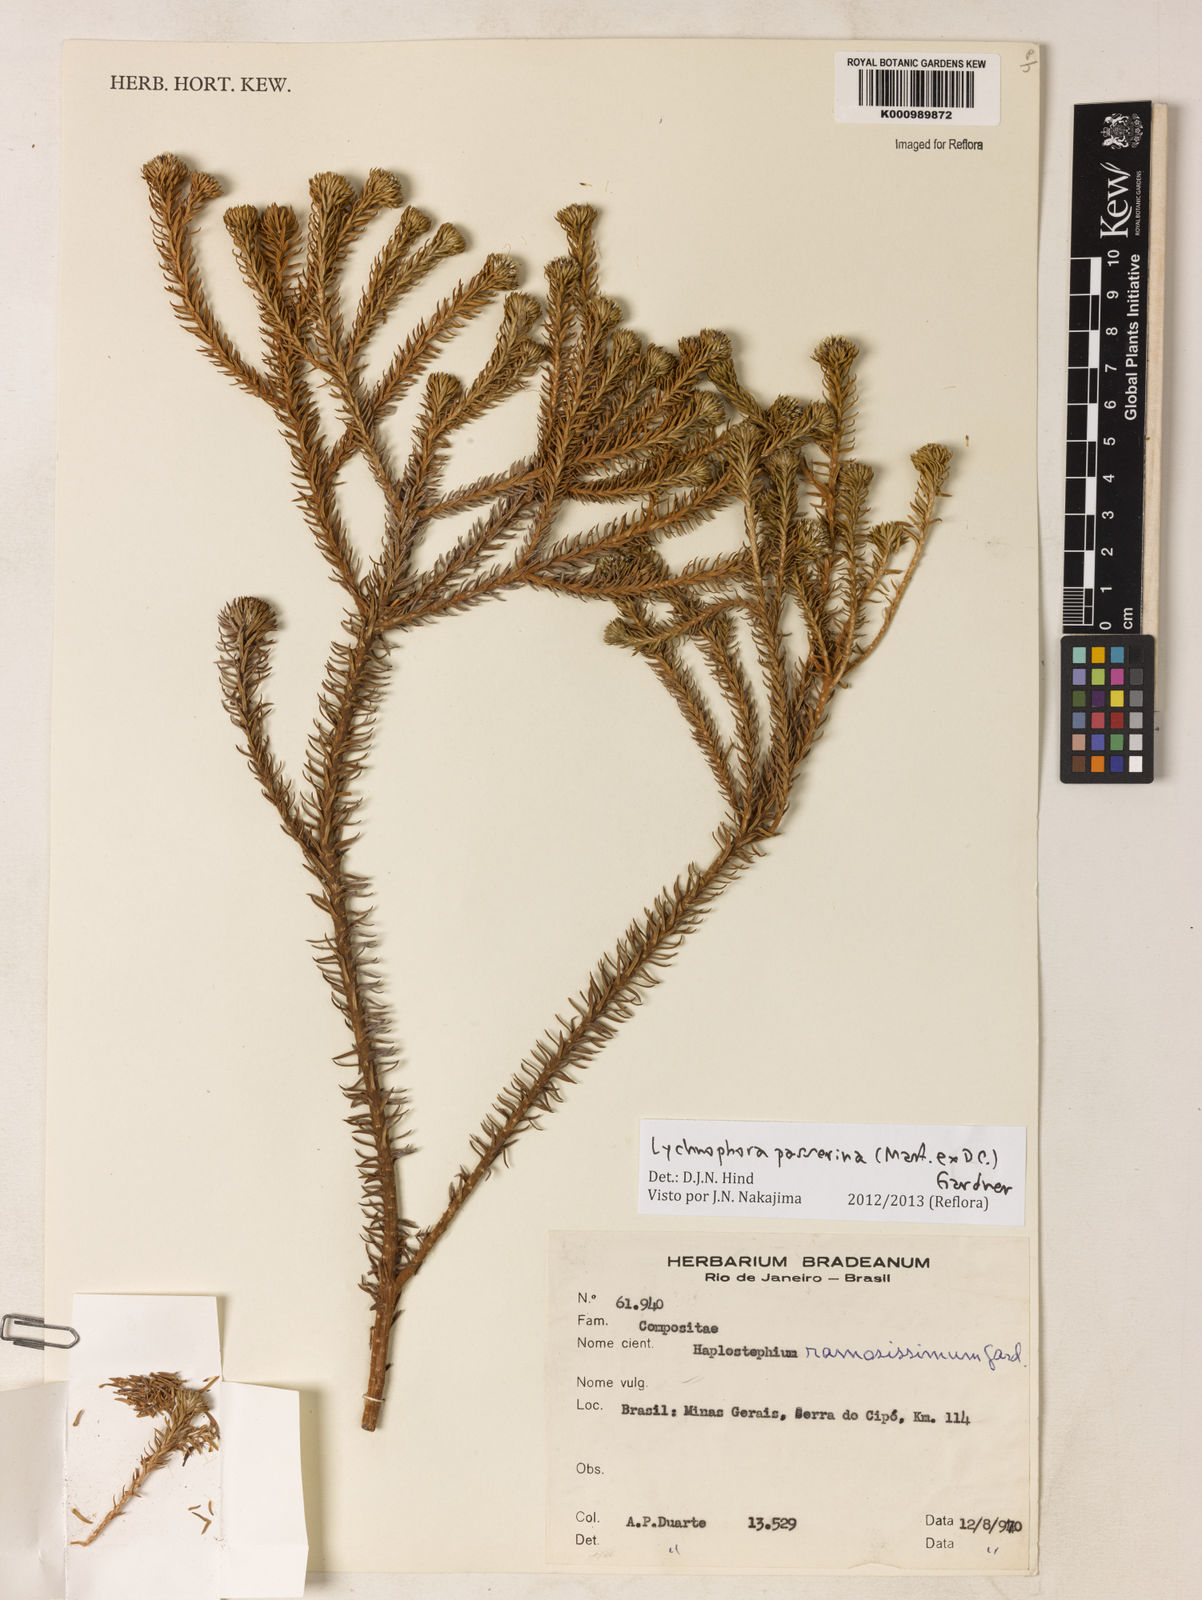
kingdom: Plantae
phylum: Tracheophyta
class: Magnoliopsida
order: Asterales
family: Asteraceae
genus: Lychnophora
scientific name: Lychnophora passerina
